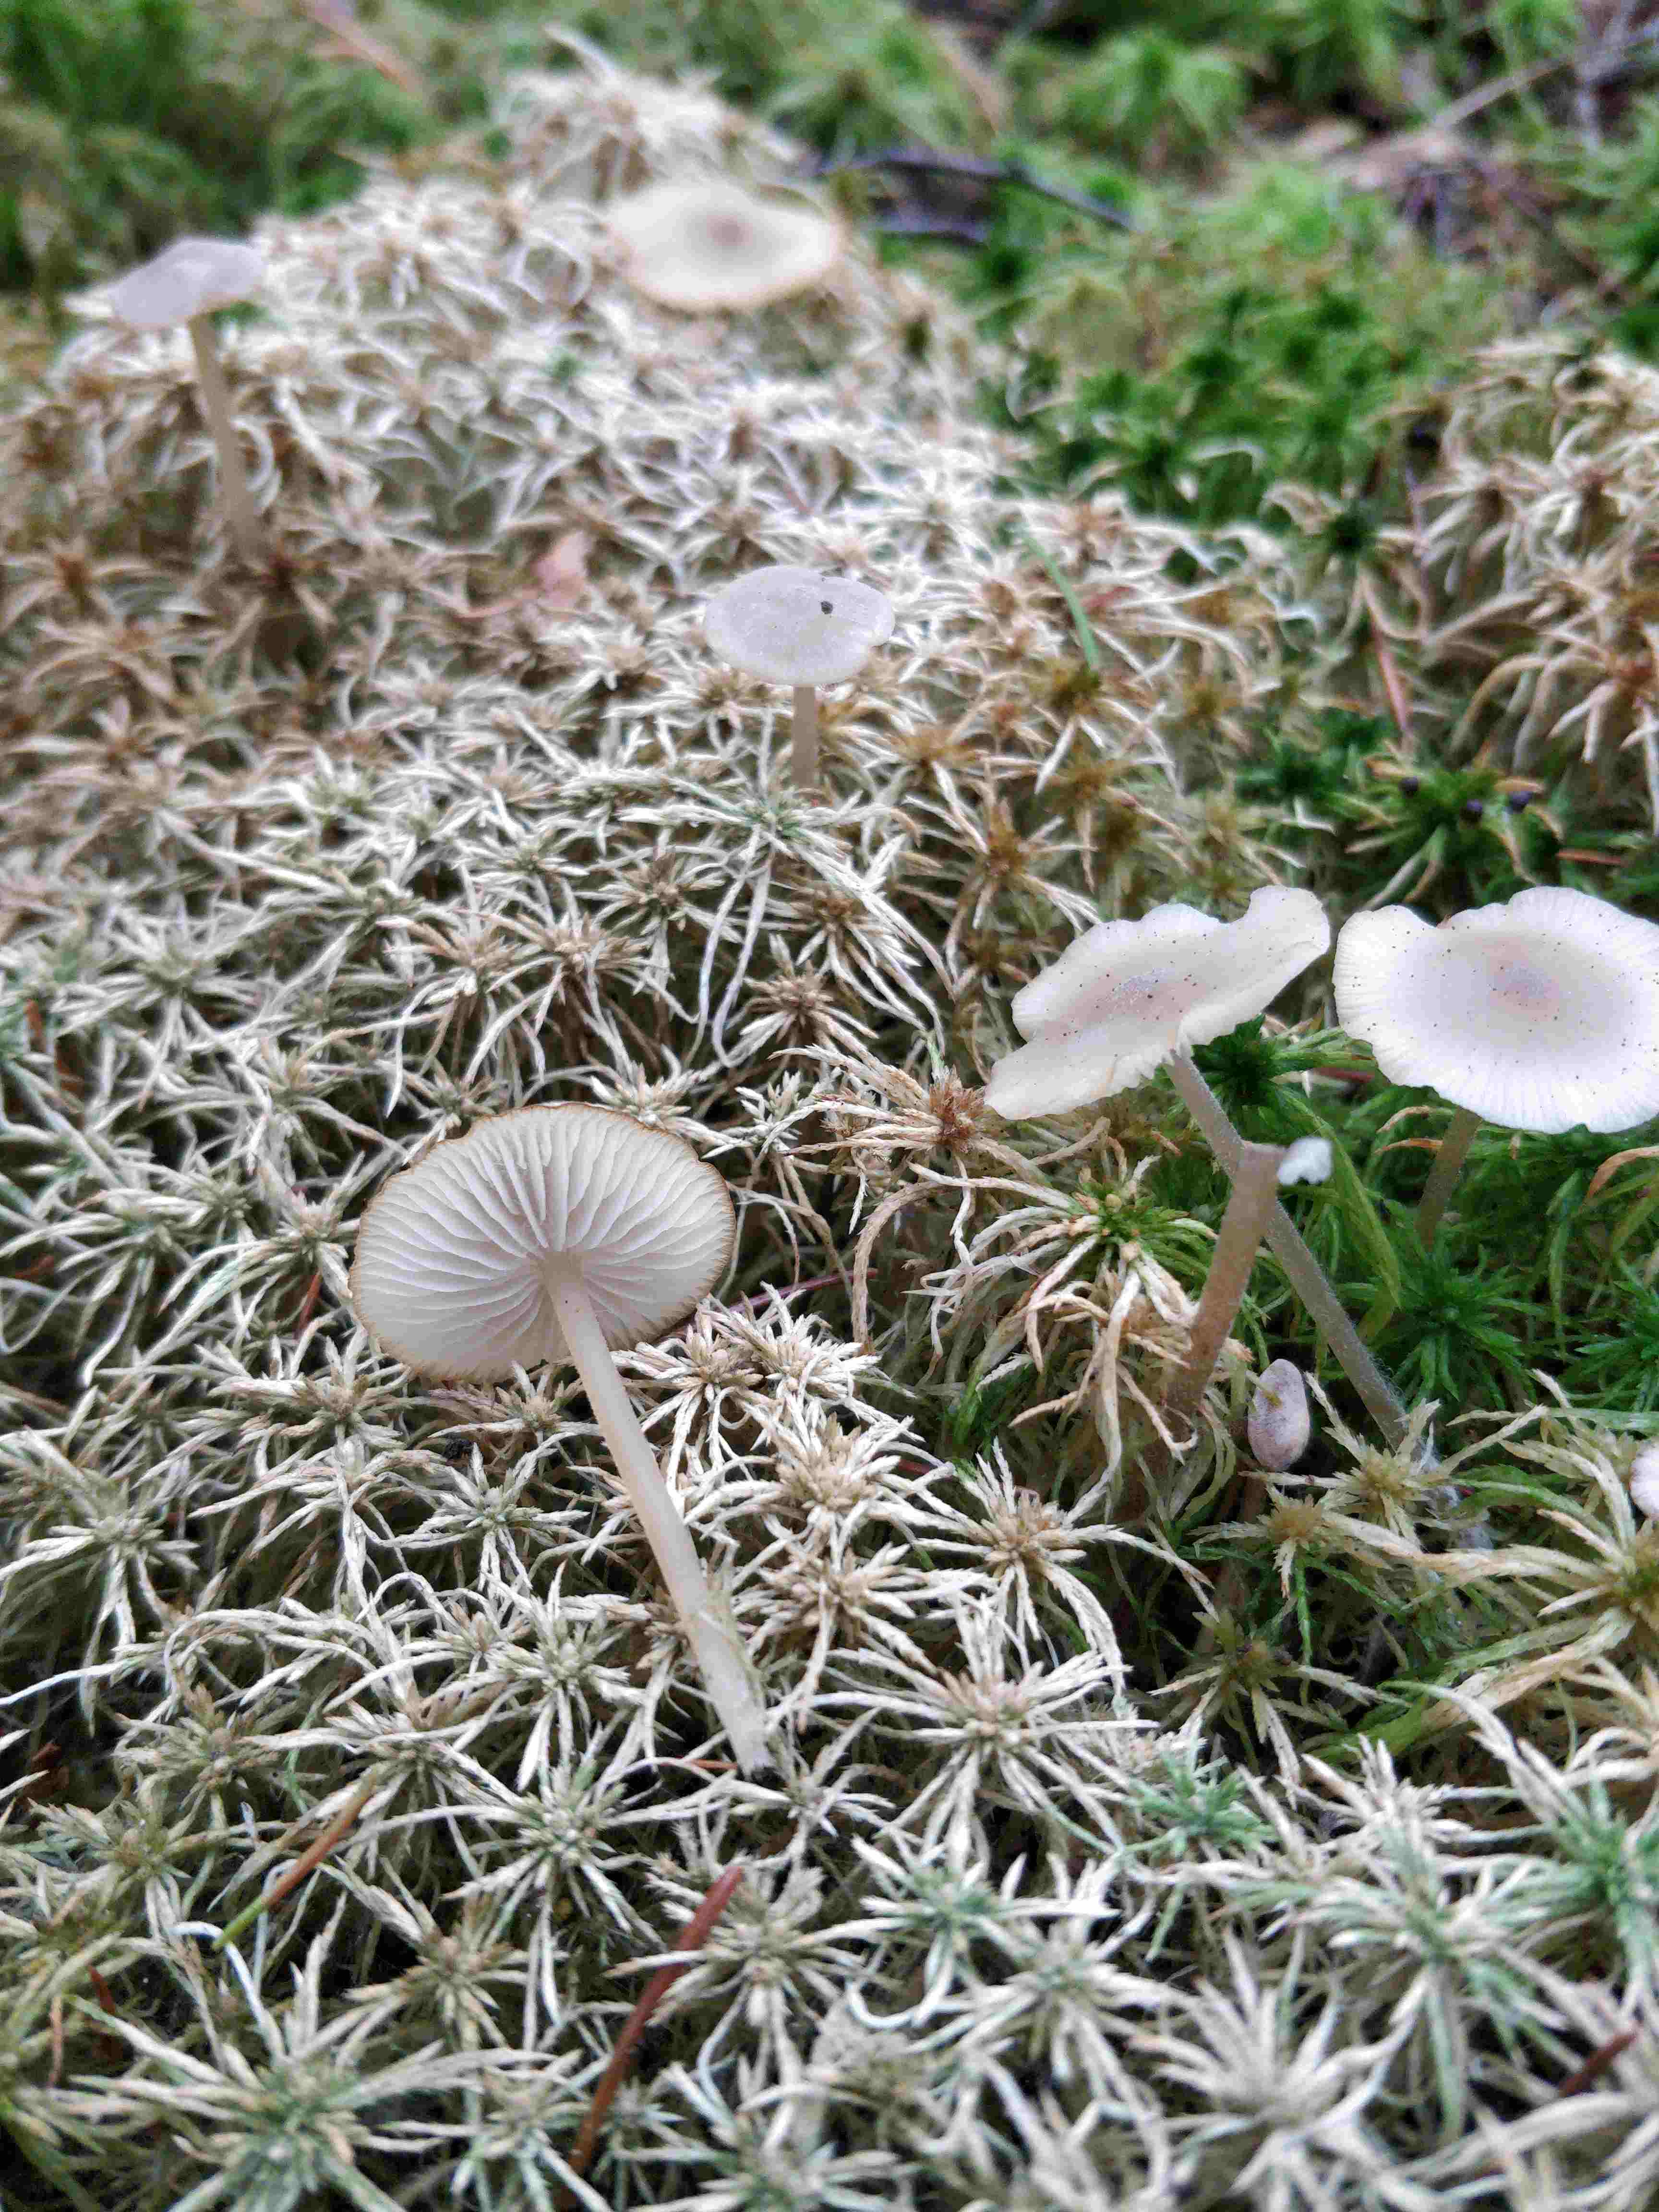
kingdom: Fungi
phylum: Basidiomycota
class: Agaricomycetes
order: Agaricales
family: Lyophyllaceae
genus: Sphagnurus
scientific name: Sphagnurus paluster
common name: tørvemos-gråblad
